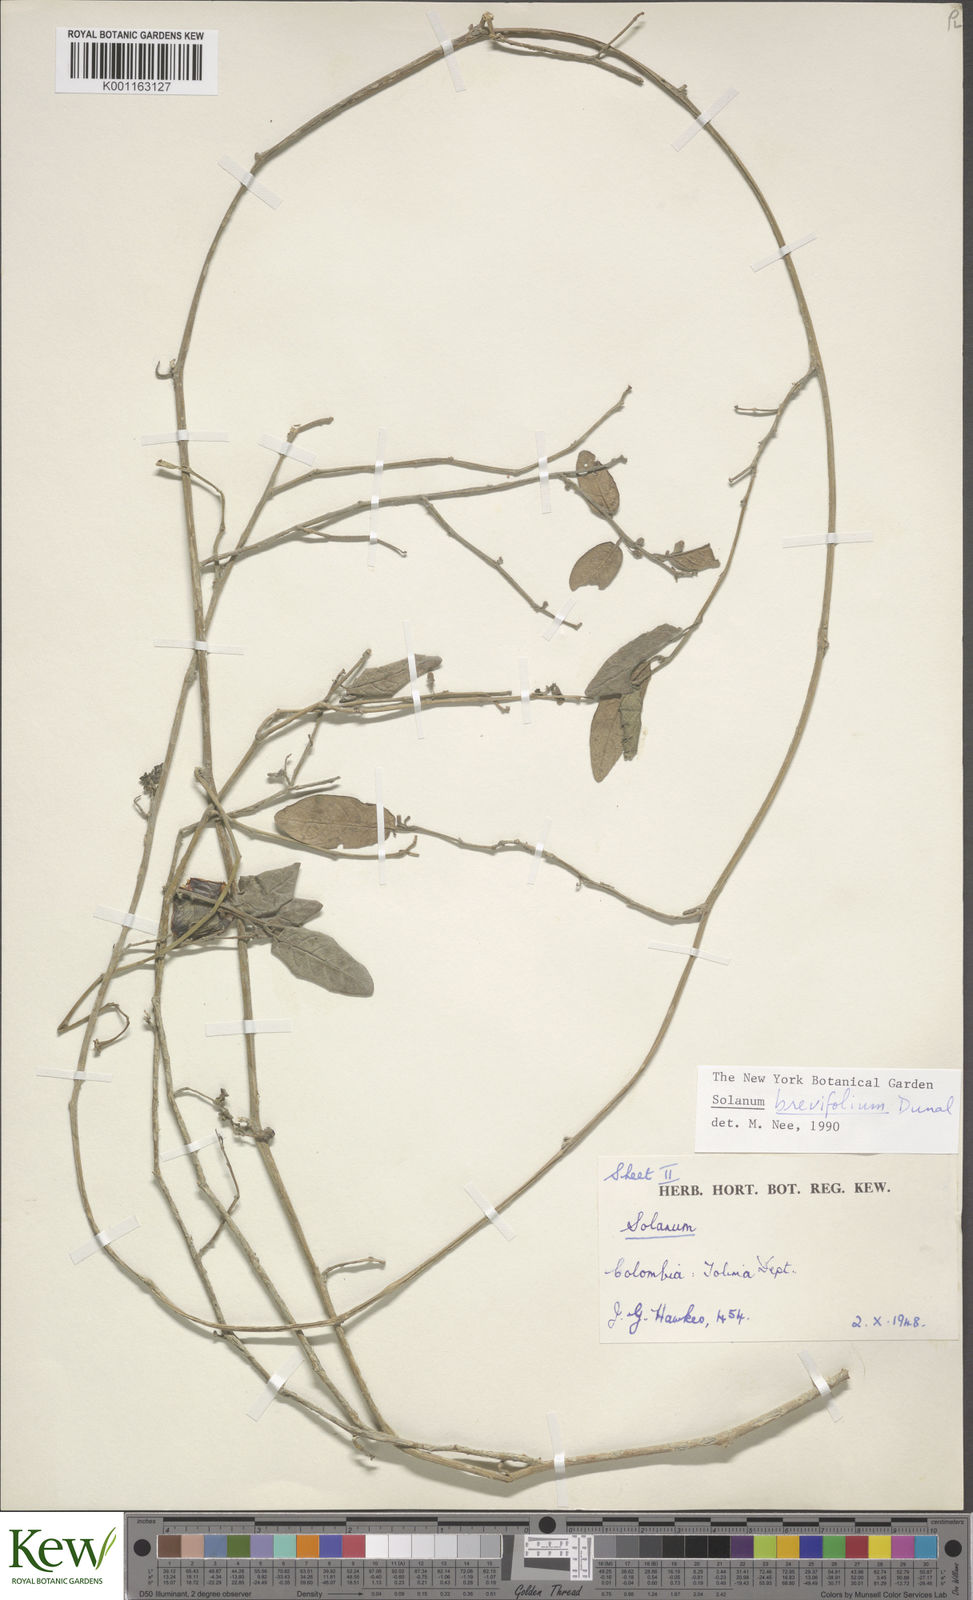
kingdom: Plantae
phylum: Tracheophyta
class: Magnoliopsida
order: Solanales
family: Solanaceae
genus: Solanum
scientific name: Solanum brevifolium
